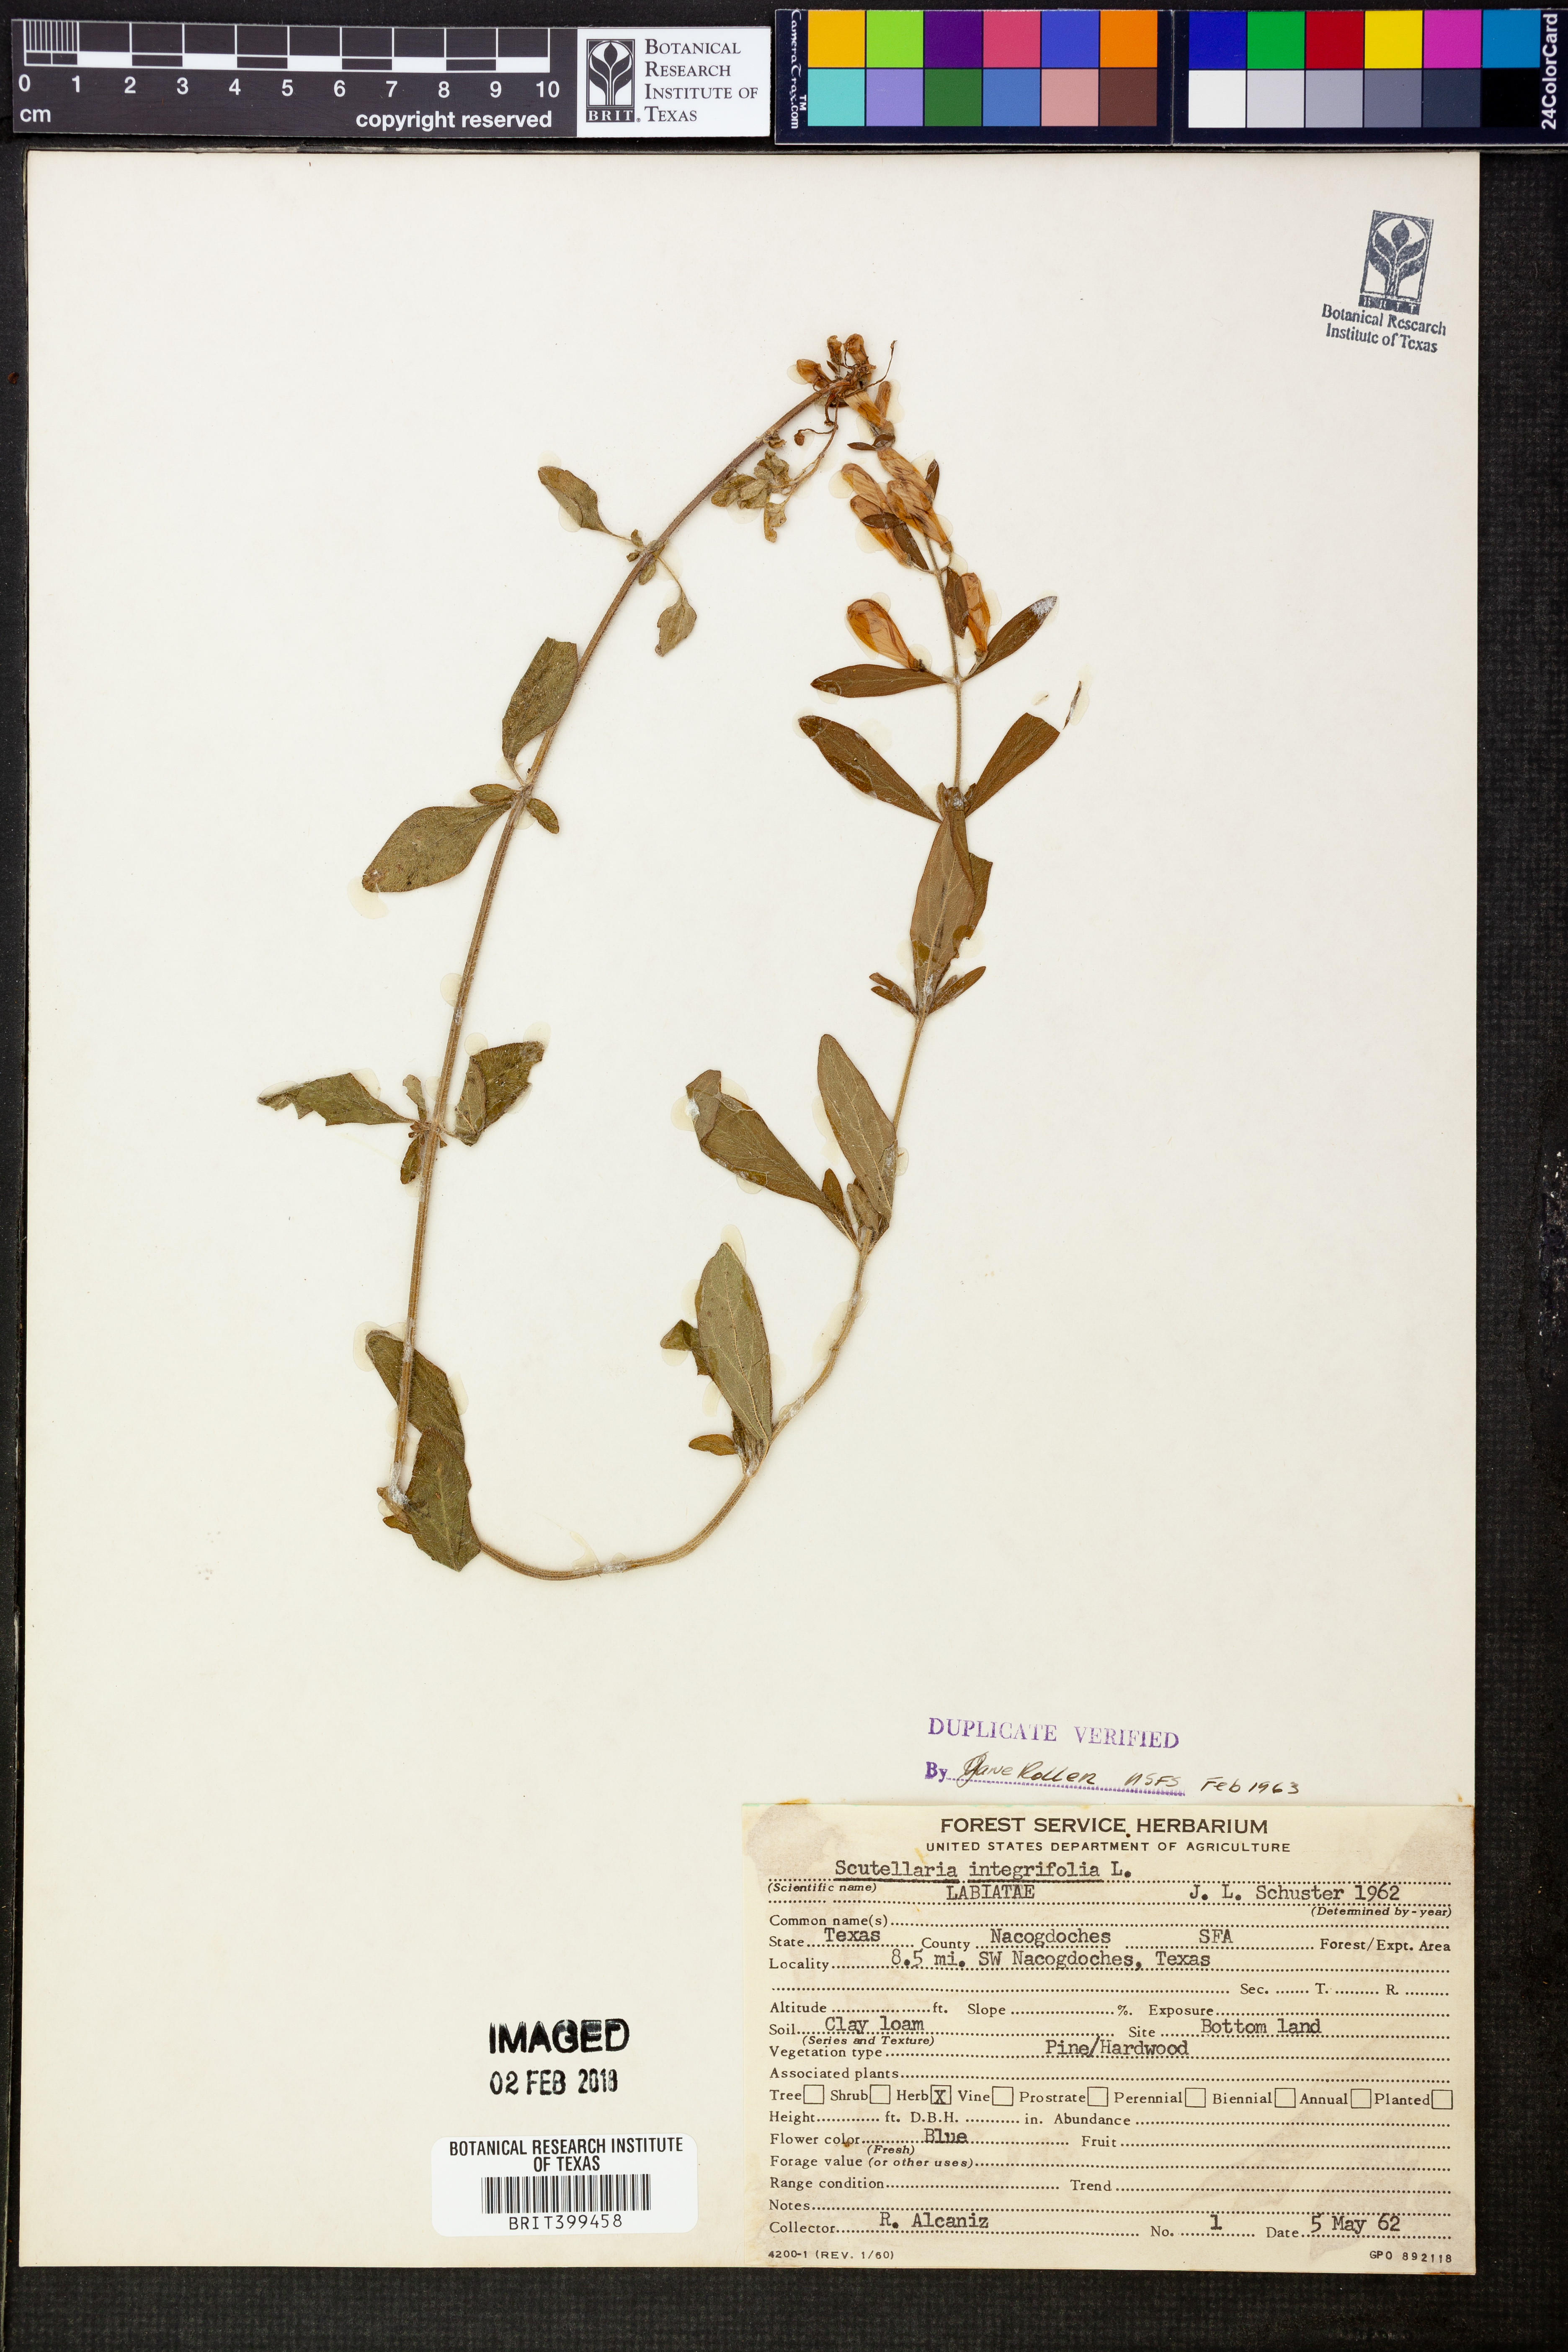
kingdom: Plantae
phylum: Tracheophyta
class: Magnoliopsida
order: Lamiales
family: Lamiaceae
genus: Scutellaria
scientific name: Scutellaria integrifolia
